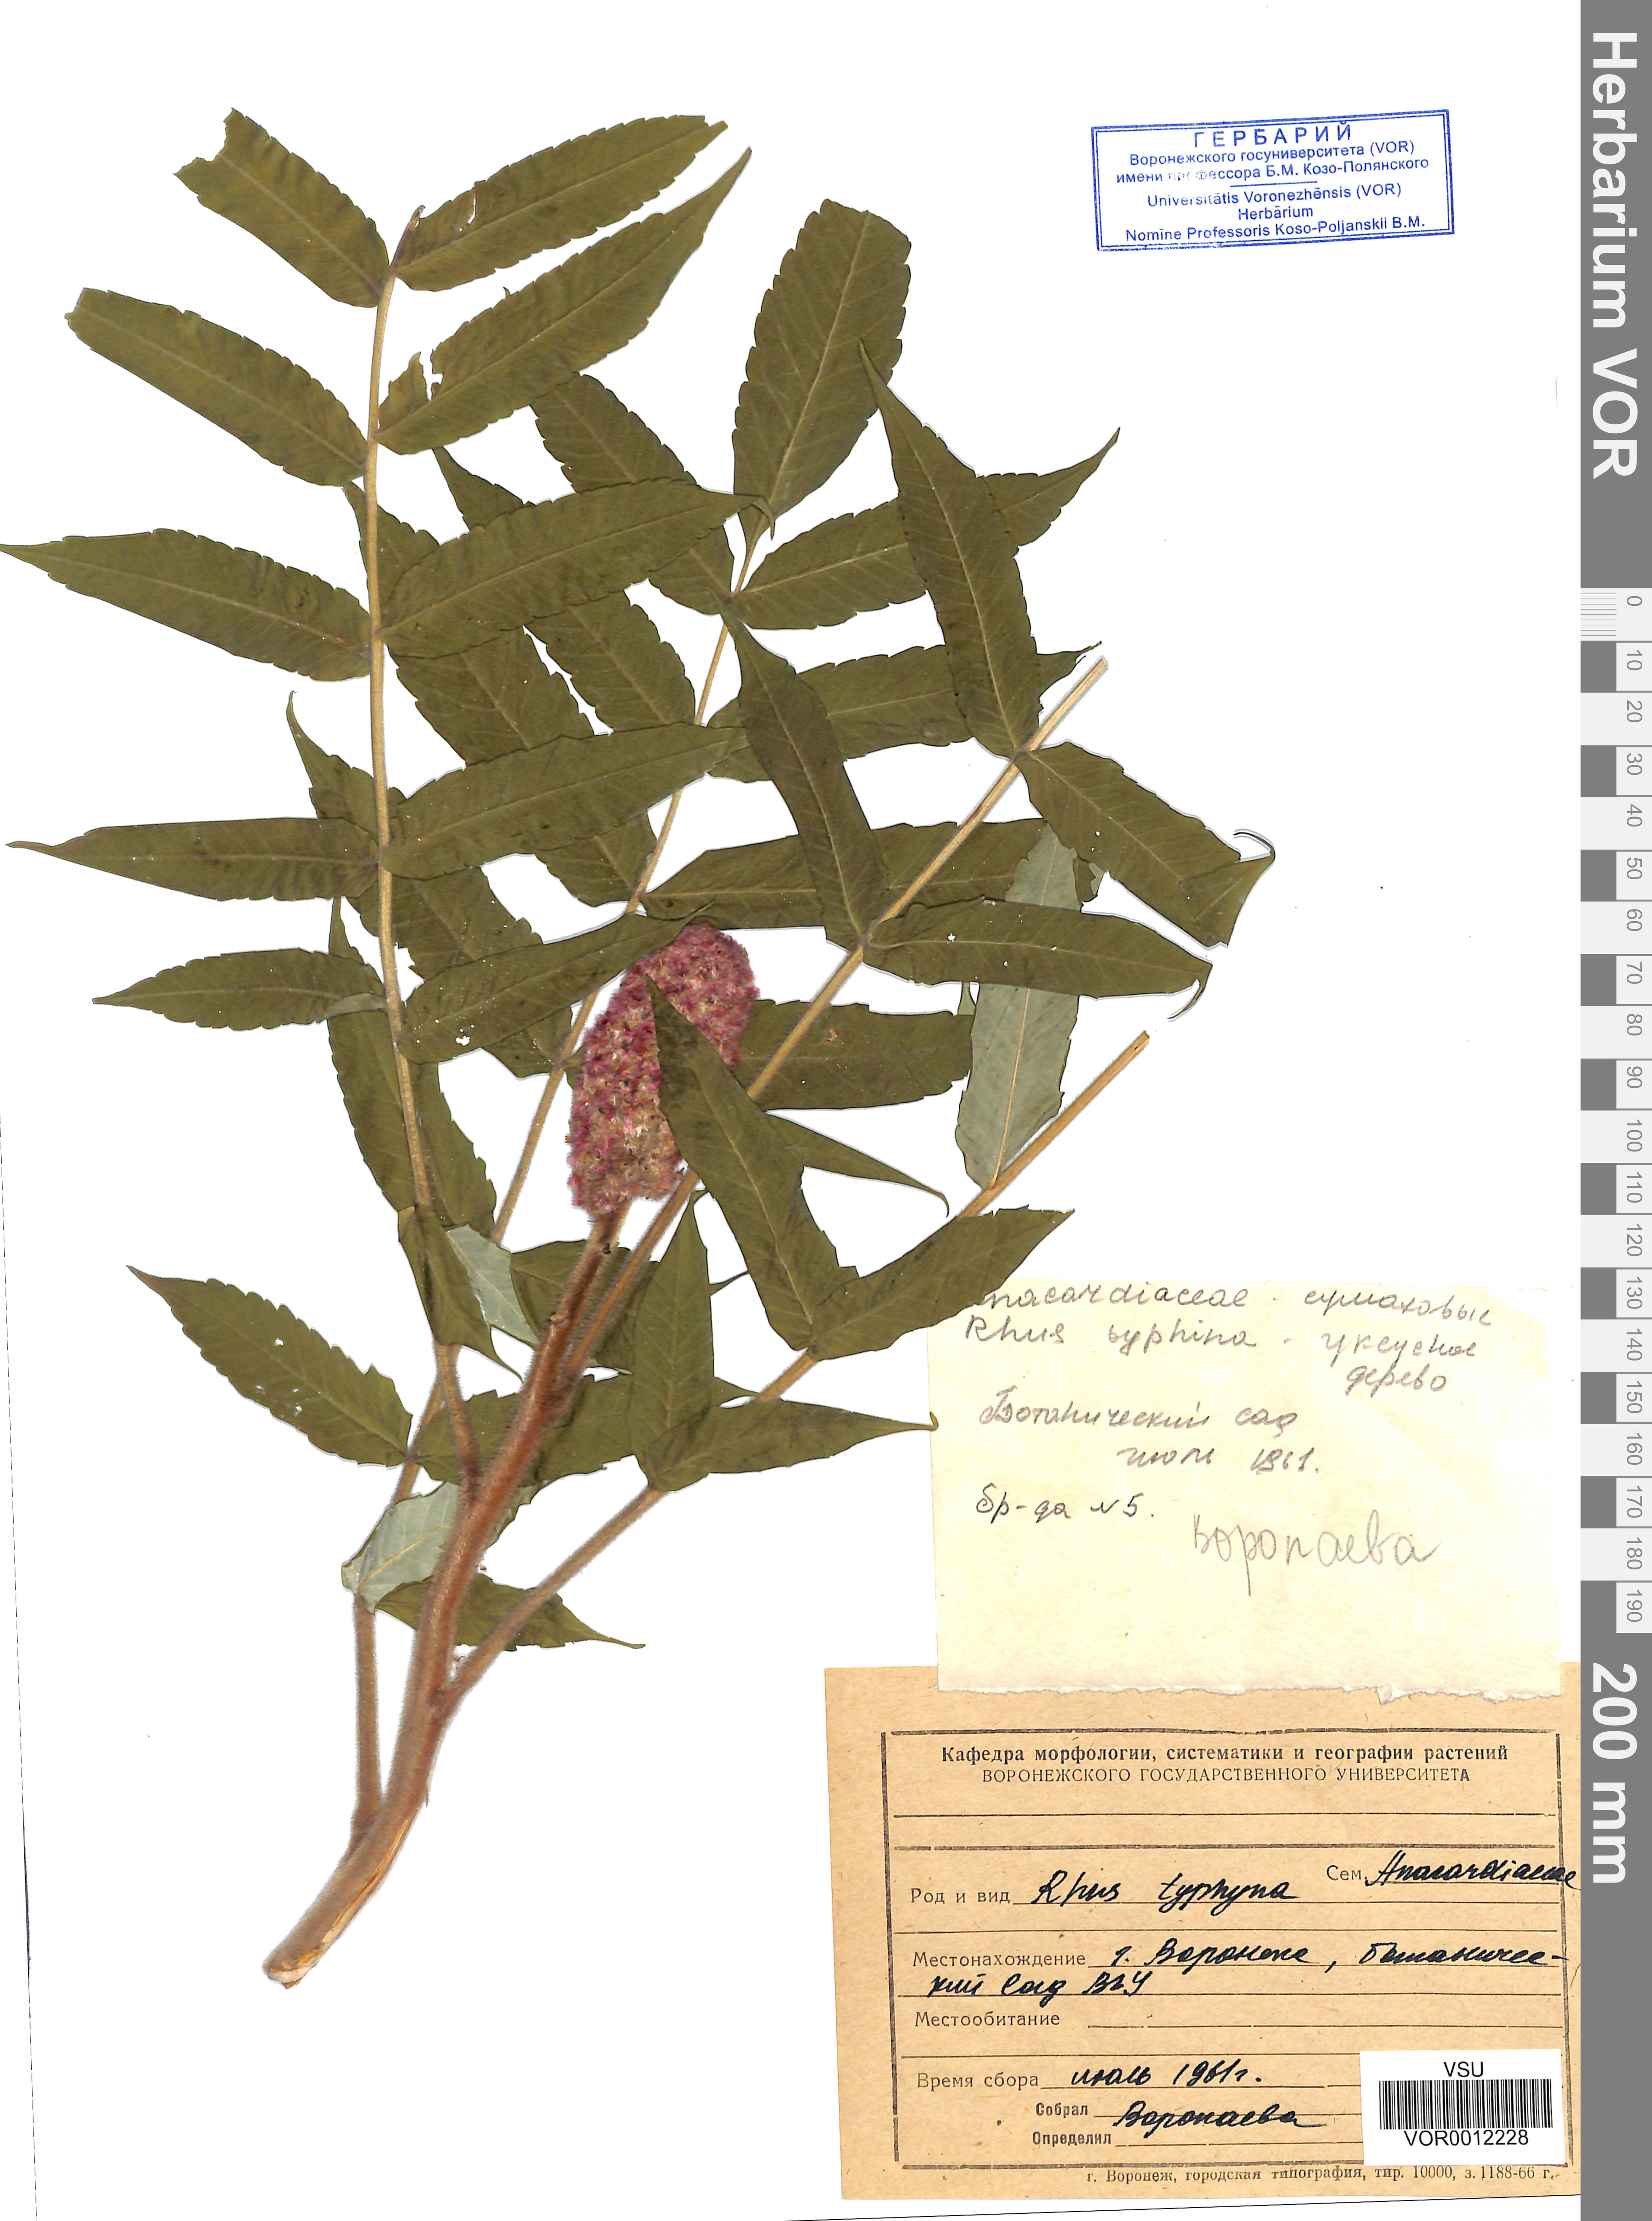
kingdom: Plantae
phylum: Tracheophyta
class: Magnoliopsida
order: Sapindales
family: Anacardiaceae
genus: Rhus
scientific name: Rhus typhina
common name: Staghorn sumac
